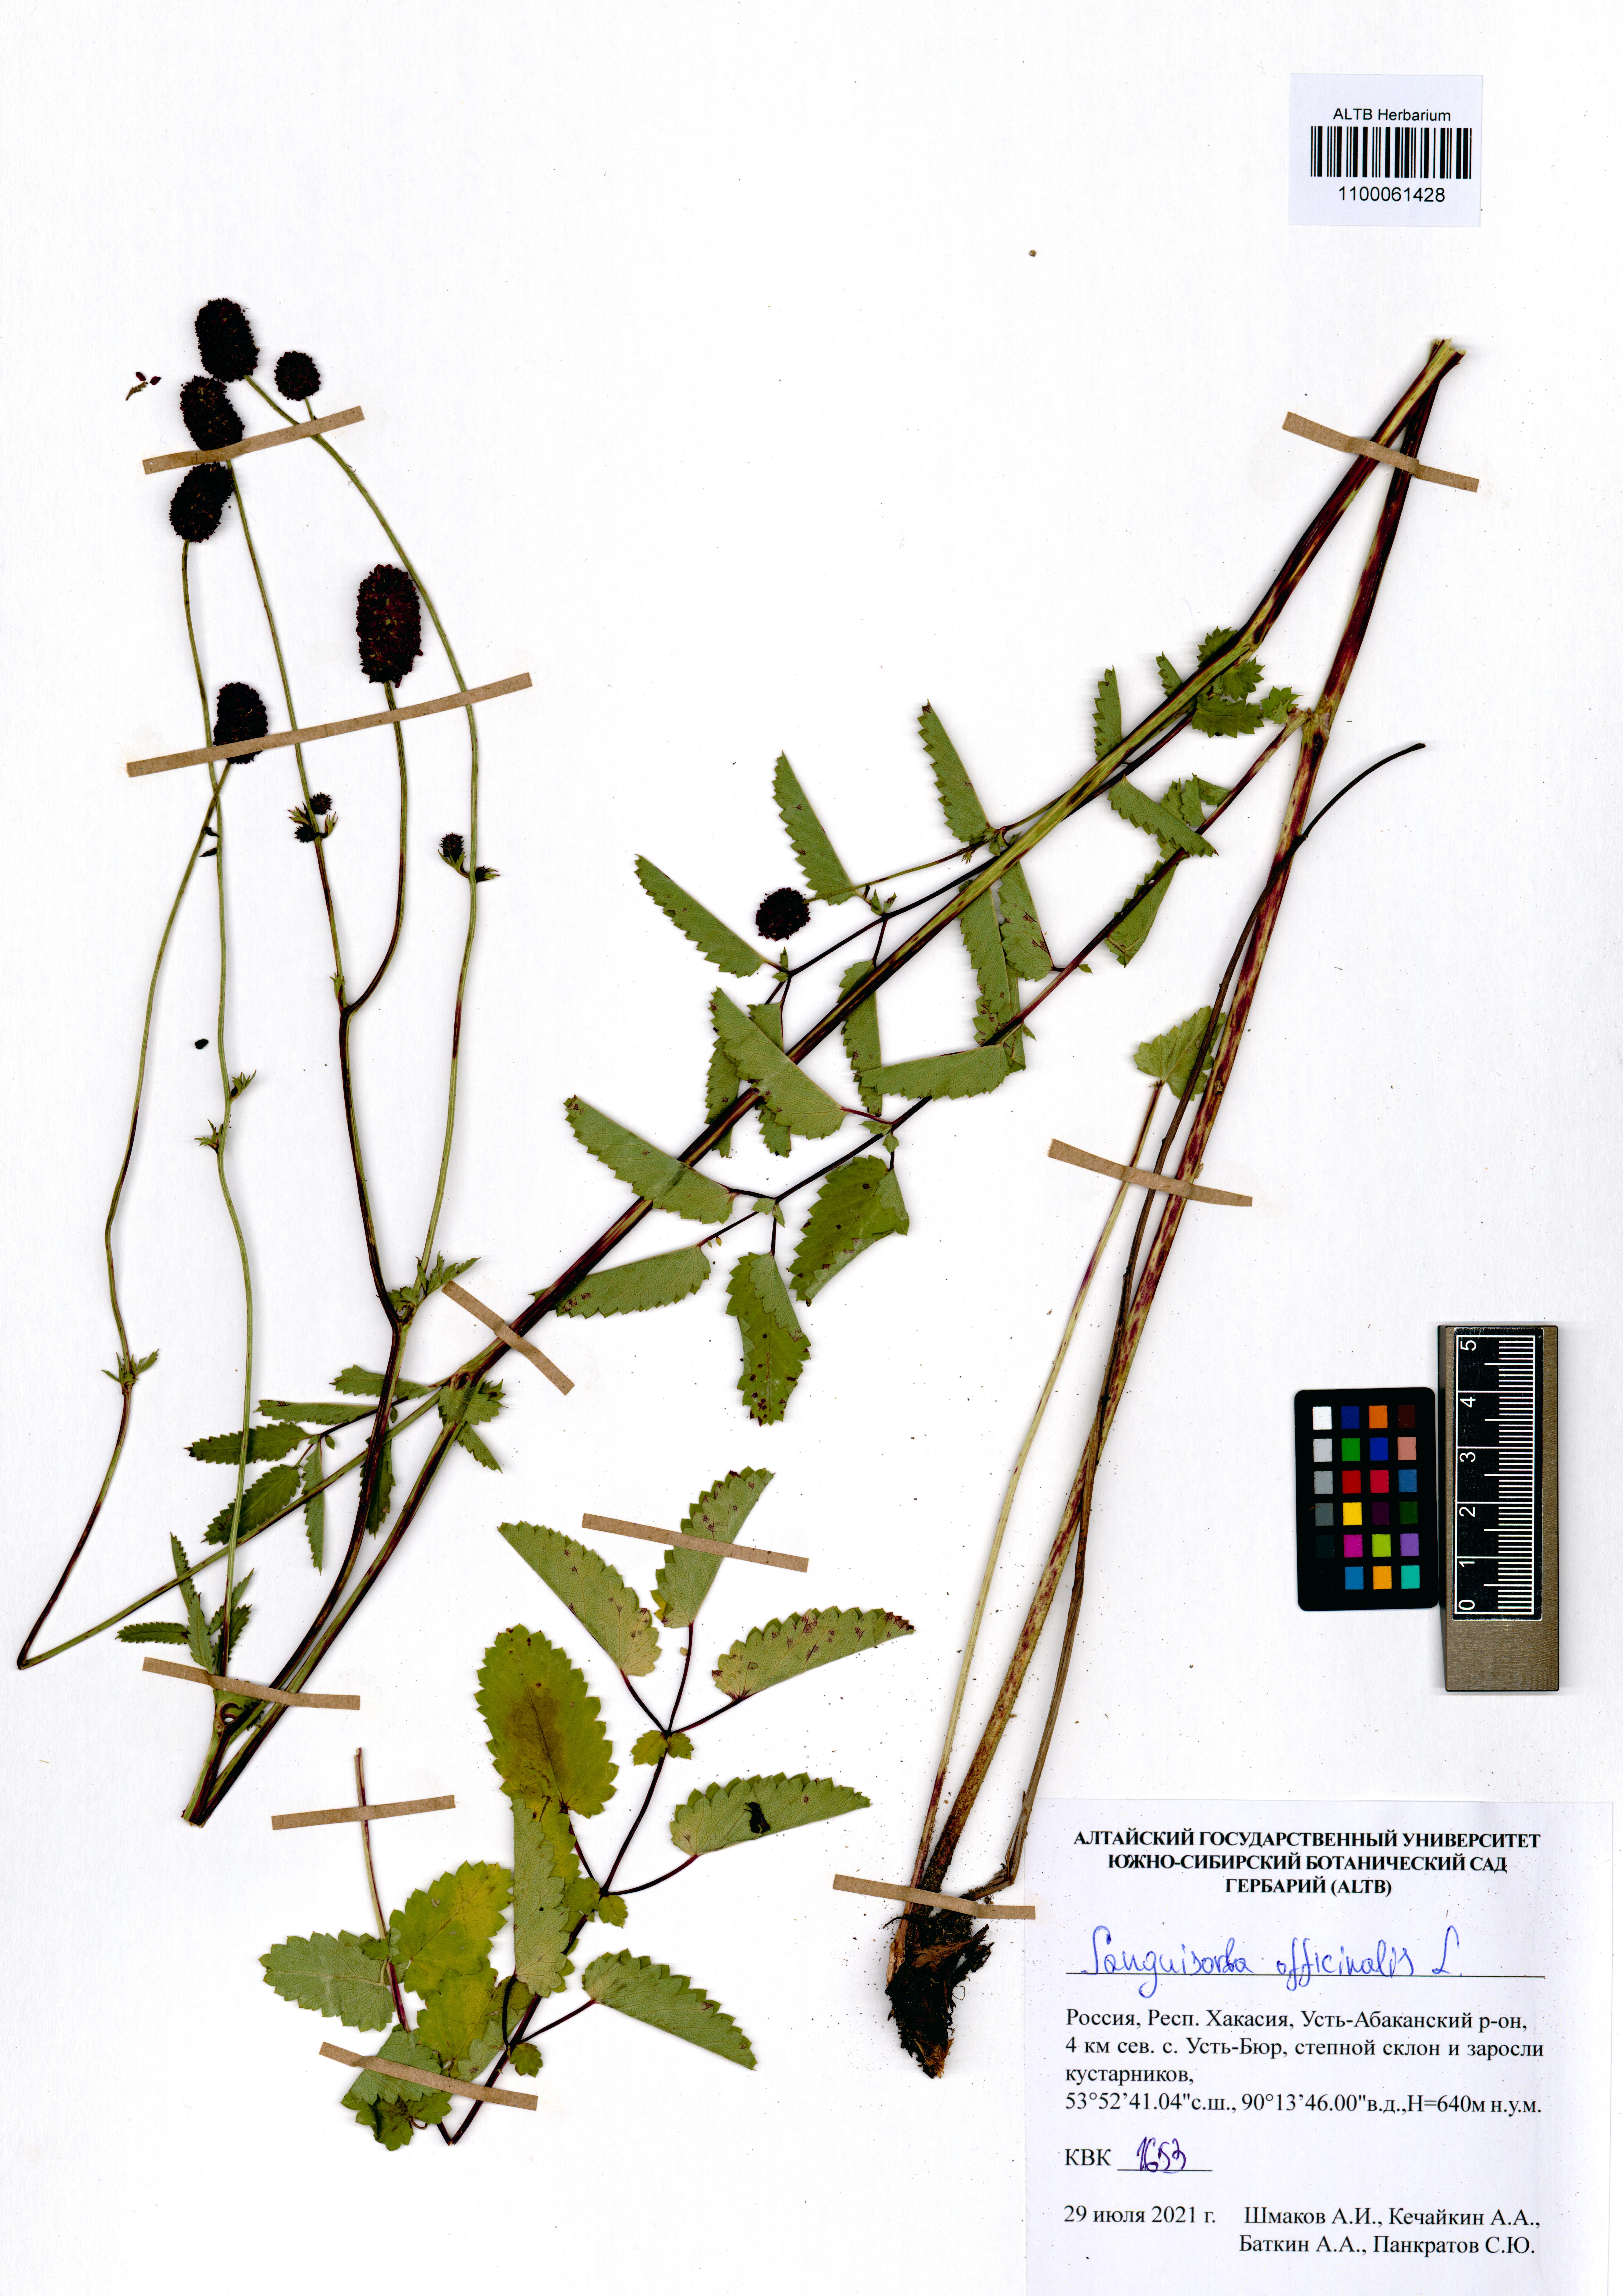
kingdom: Plantae
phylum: Tracheophyta
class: Magnoliopsida
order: Rosales
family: Rosaceae
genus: Sanguisorba
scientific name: Sanguisorba officinalis
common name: Great burnet
